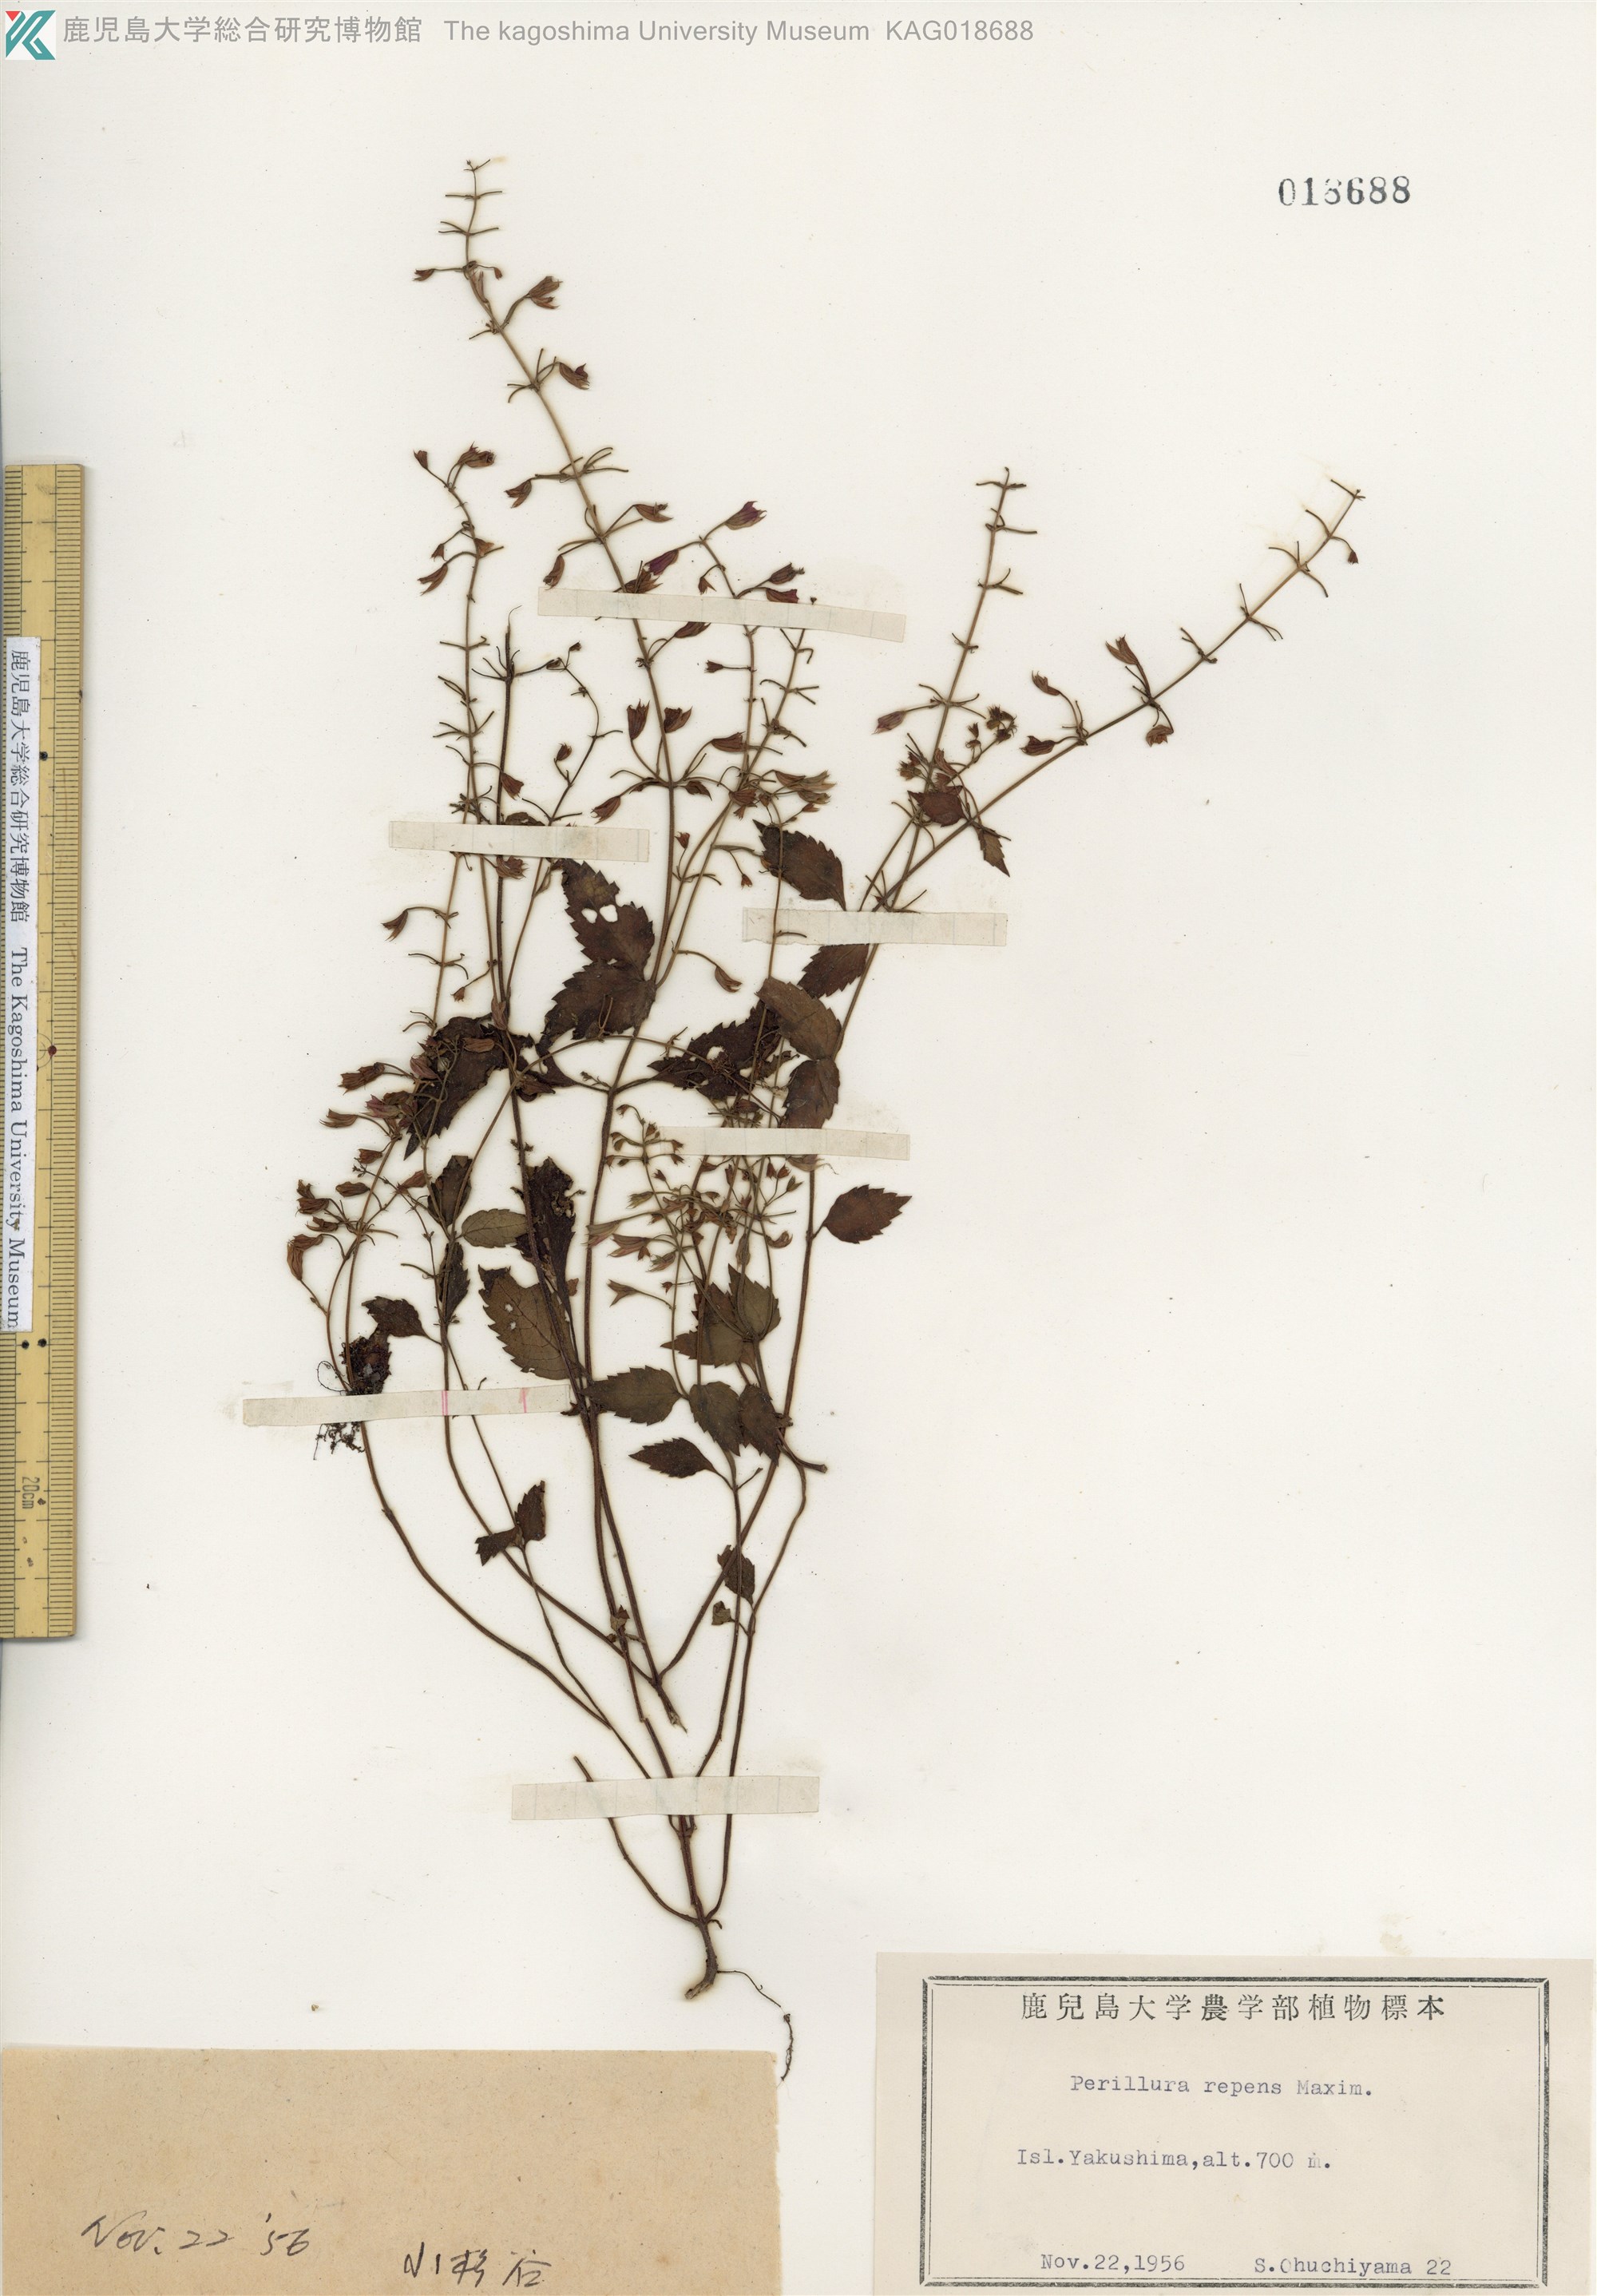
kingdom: Plantae
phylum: Tracheophyta
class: Magnoliopsida
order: Lamiales
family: Lamiaceae
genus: Perillula
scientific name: Perillula reptans
